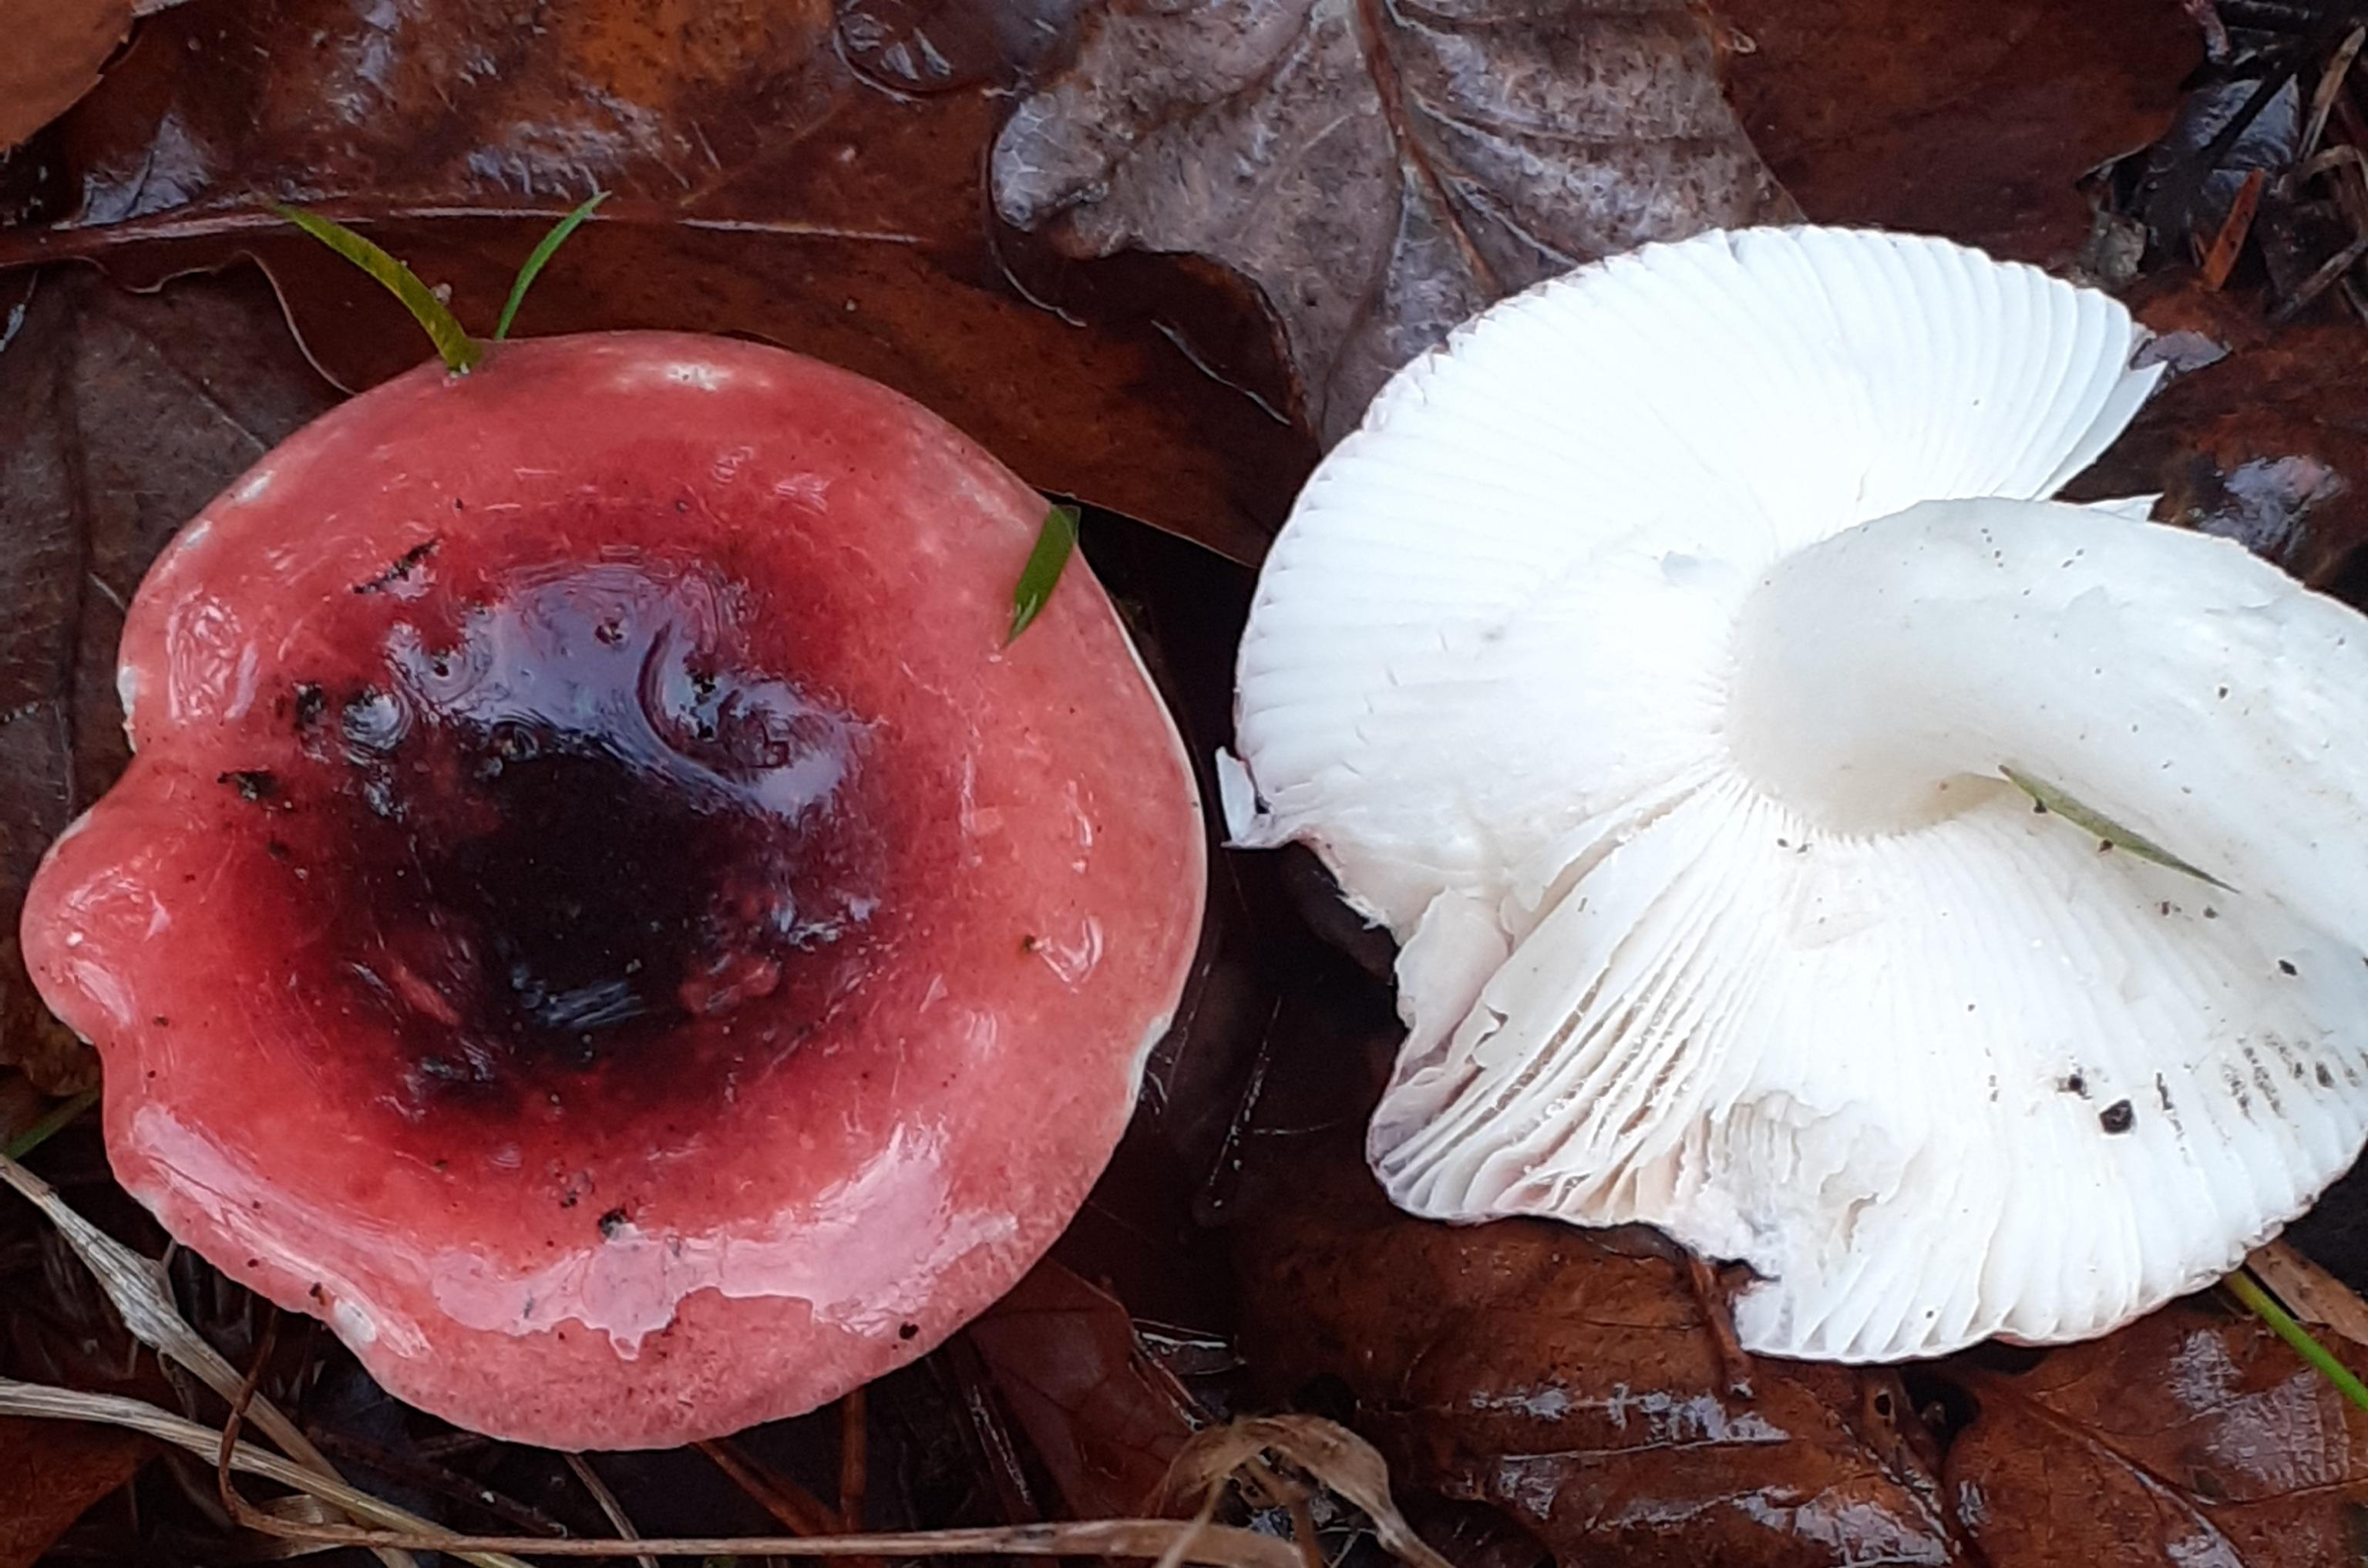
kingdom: Fungi
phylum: Basidiomycota
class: Agaricomycetes
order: Russulales
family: Russulaceae
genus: Russula
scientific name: Russula atrorubens
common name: sortrød skørhat
